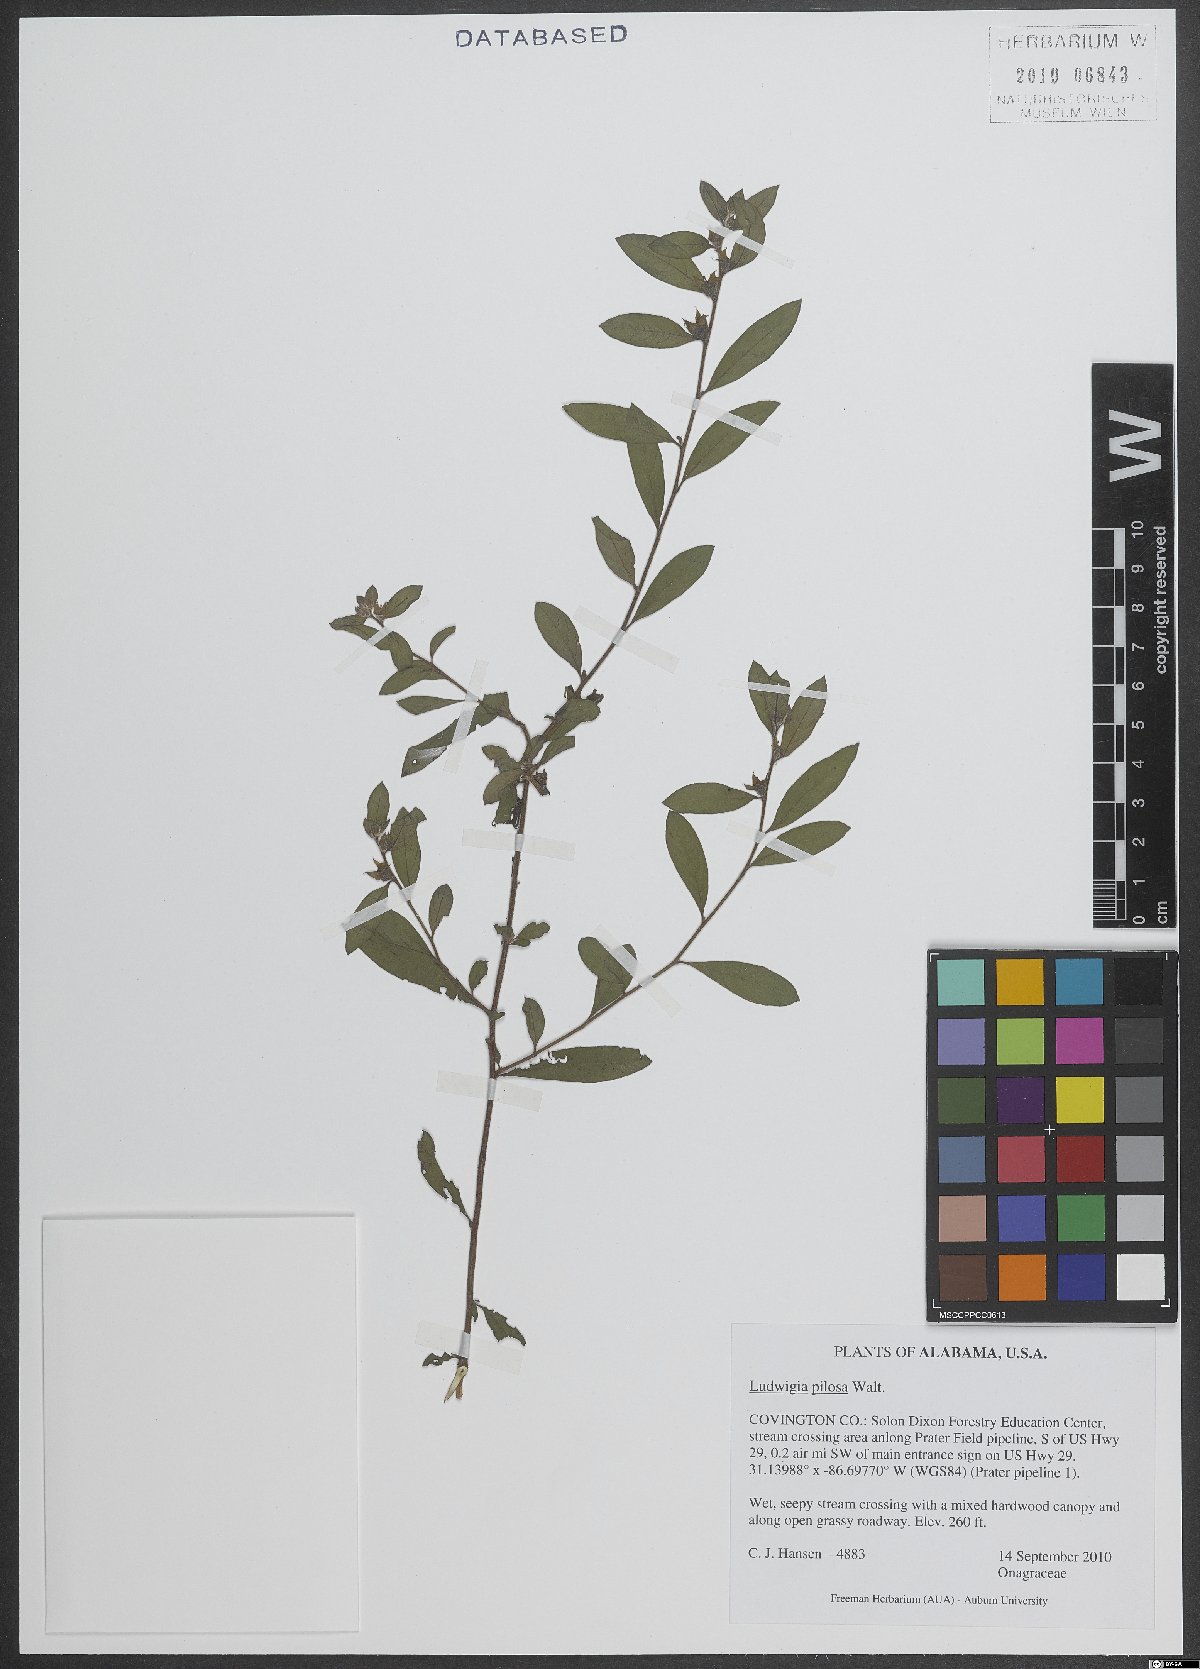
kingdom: Plantae
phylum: Tracheophyta
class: Magnoliopsida
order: Myrtales
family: Onagraceae
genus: Ludwigia
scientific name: Ludwigia pilosa
